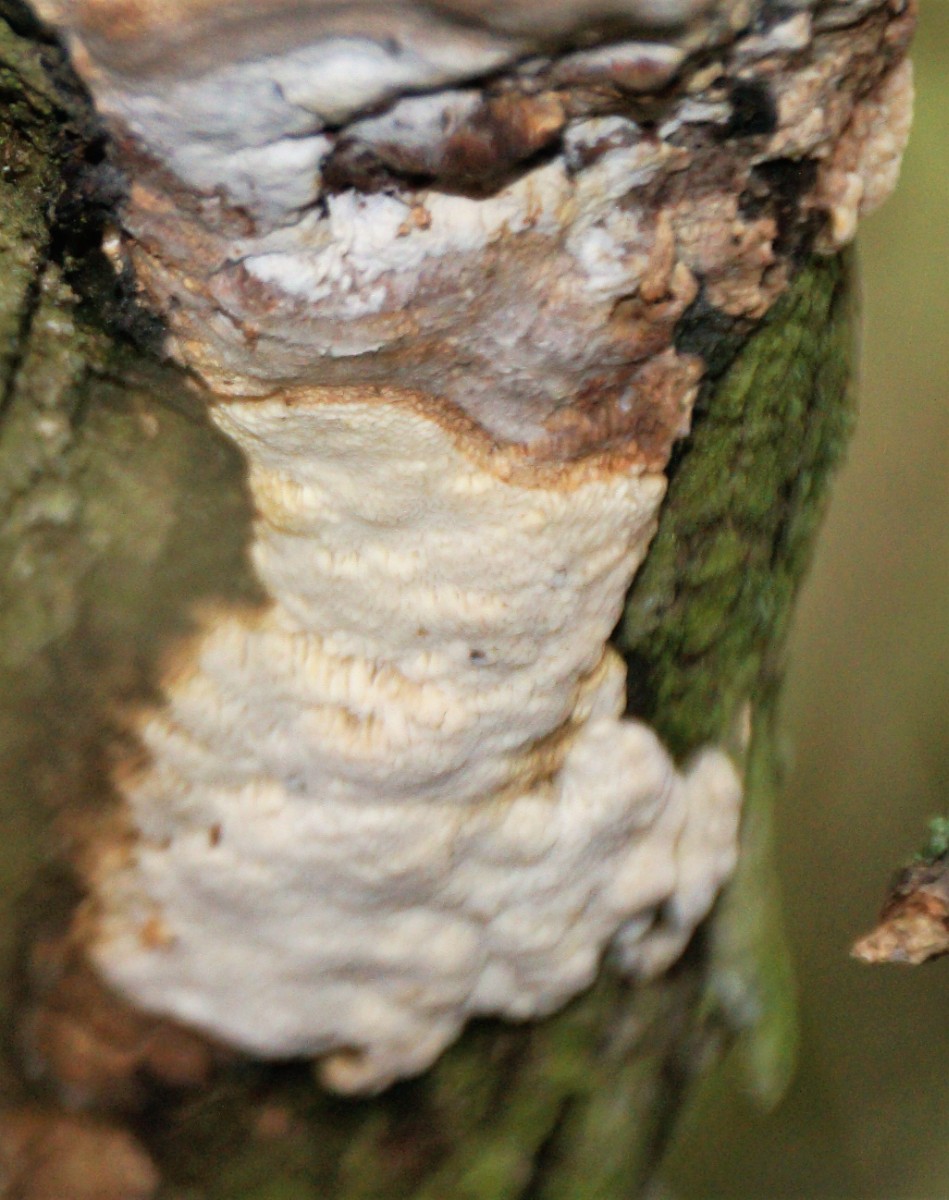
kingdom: Fungi
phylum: Basidiomycota
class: Agaricomycetes
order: Polyporales
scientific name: Polyporales
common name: poresvampordenen
